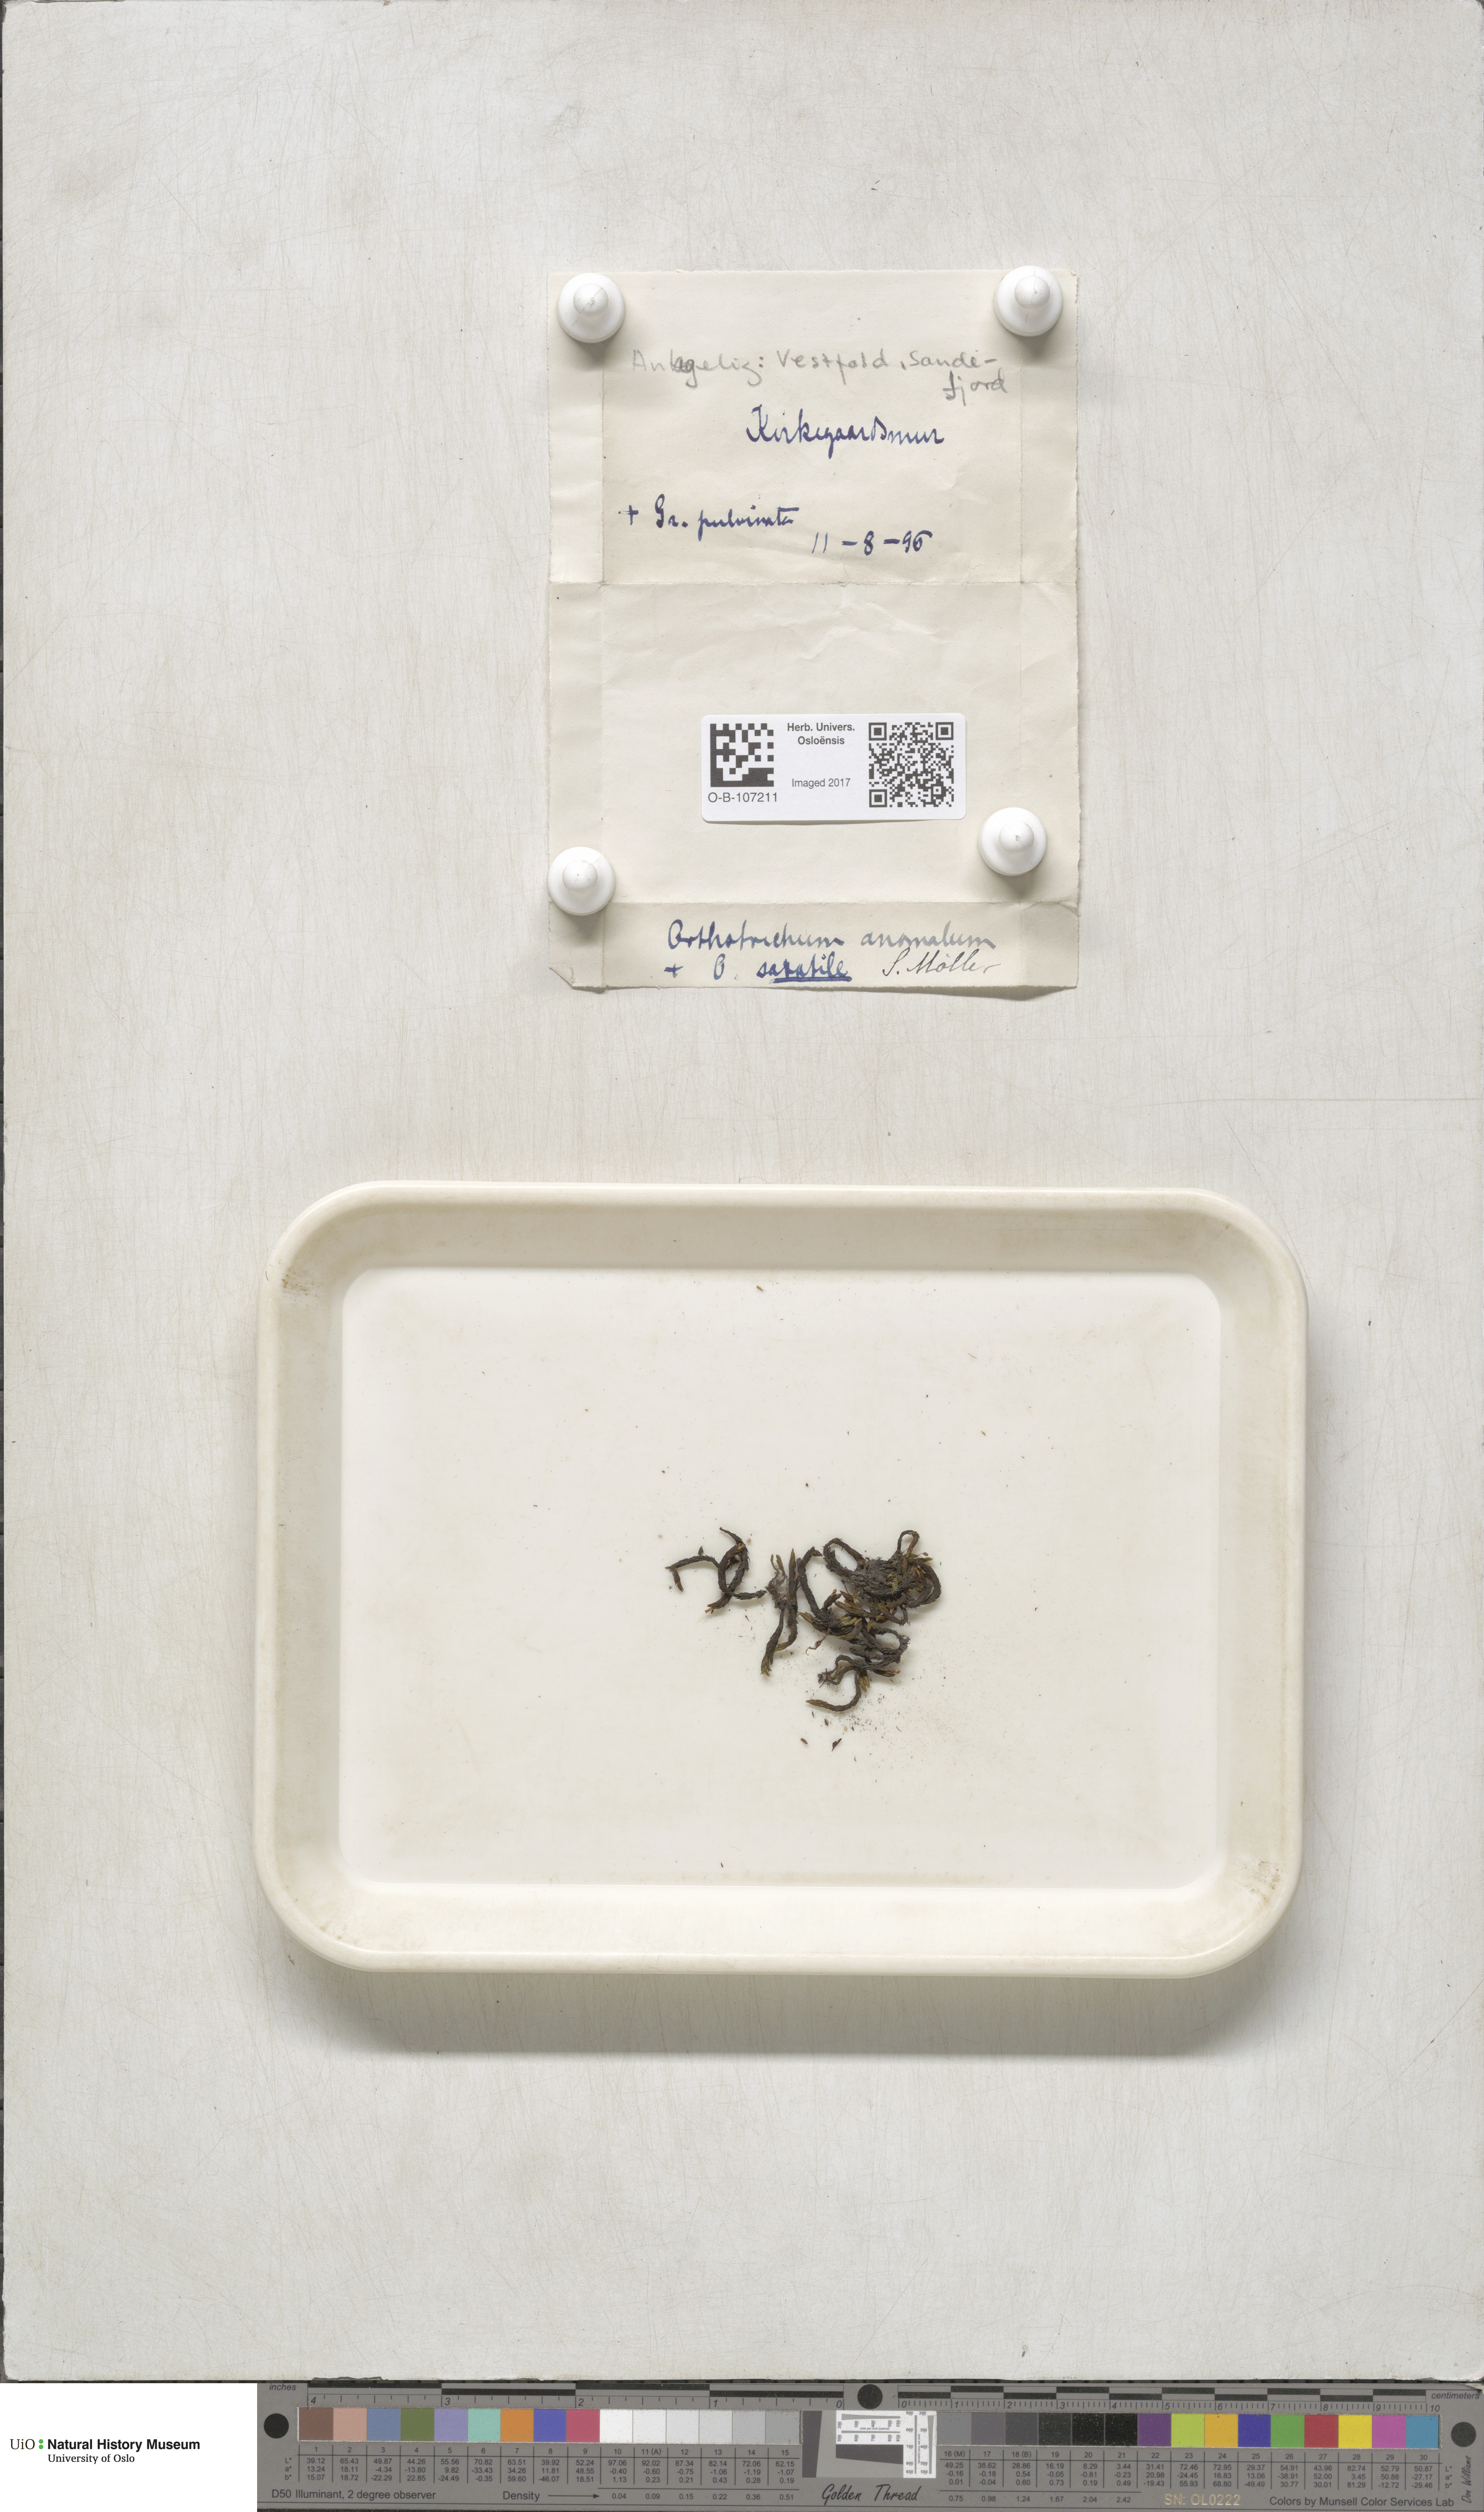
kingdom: Plantae
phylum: Bryophyta
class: Bryopsida
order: Orthotrichales
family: Orthotrichaceae
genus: Orthotrichum
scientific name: Orthotrichum anomalum
